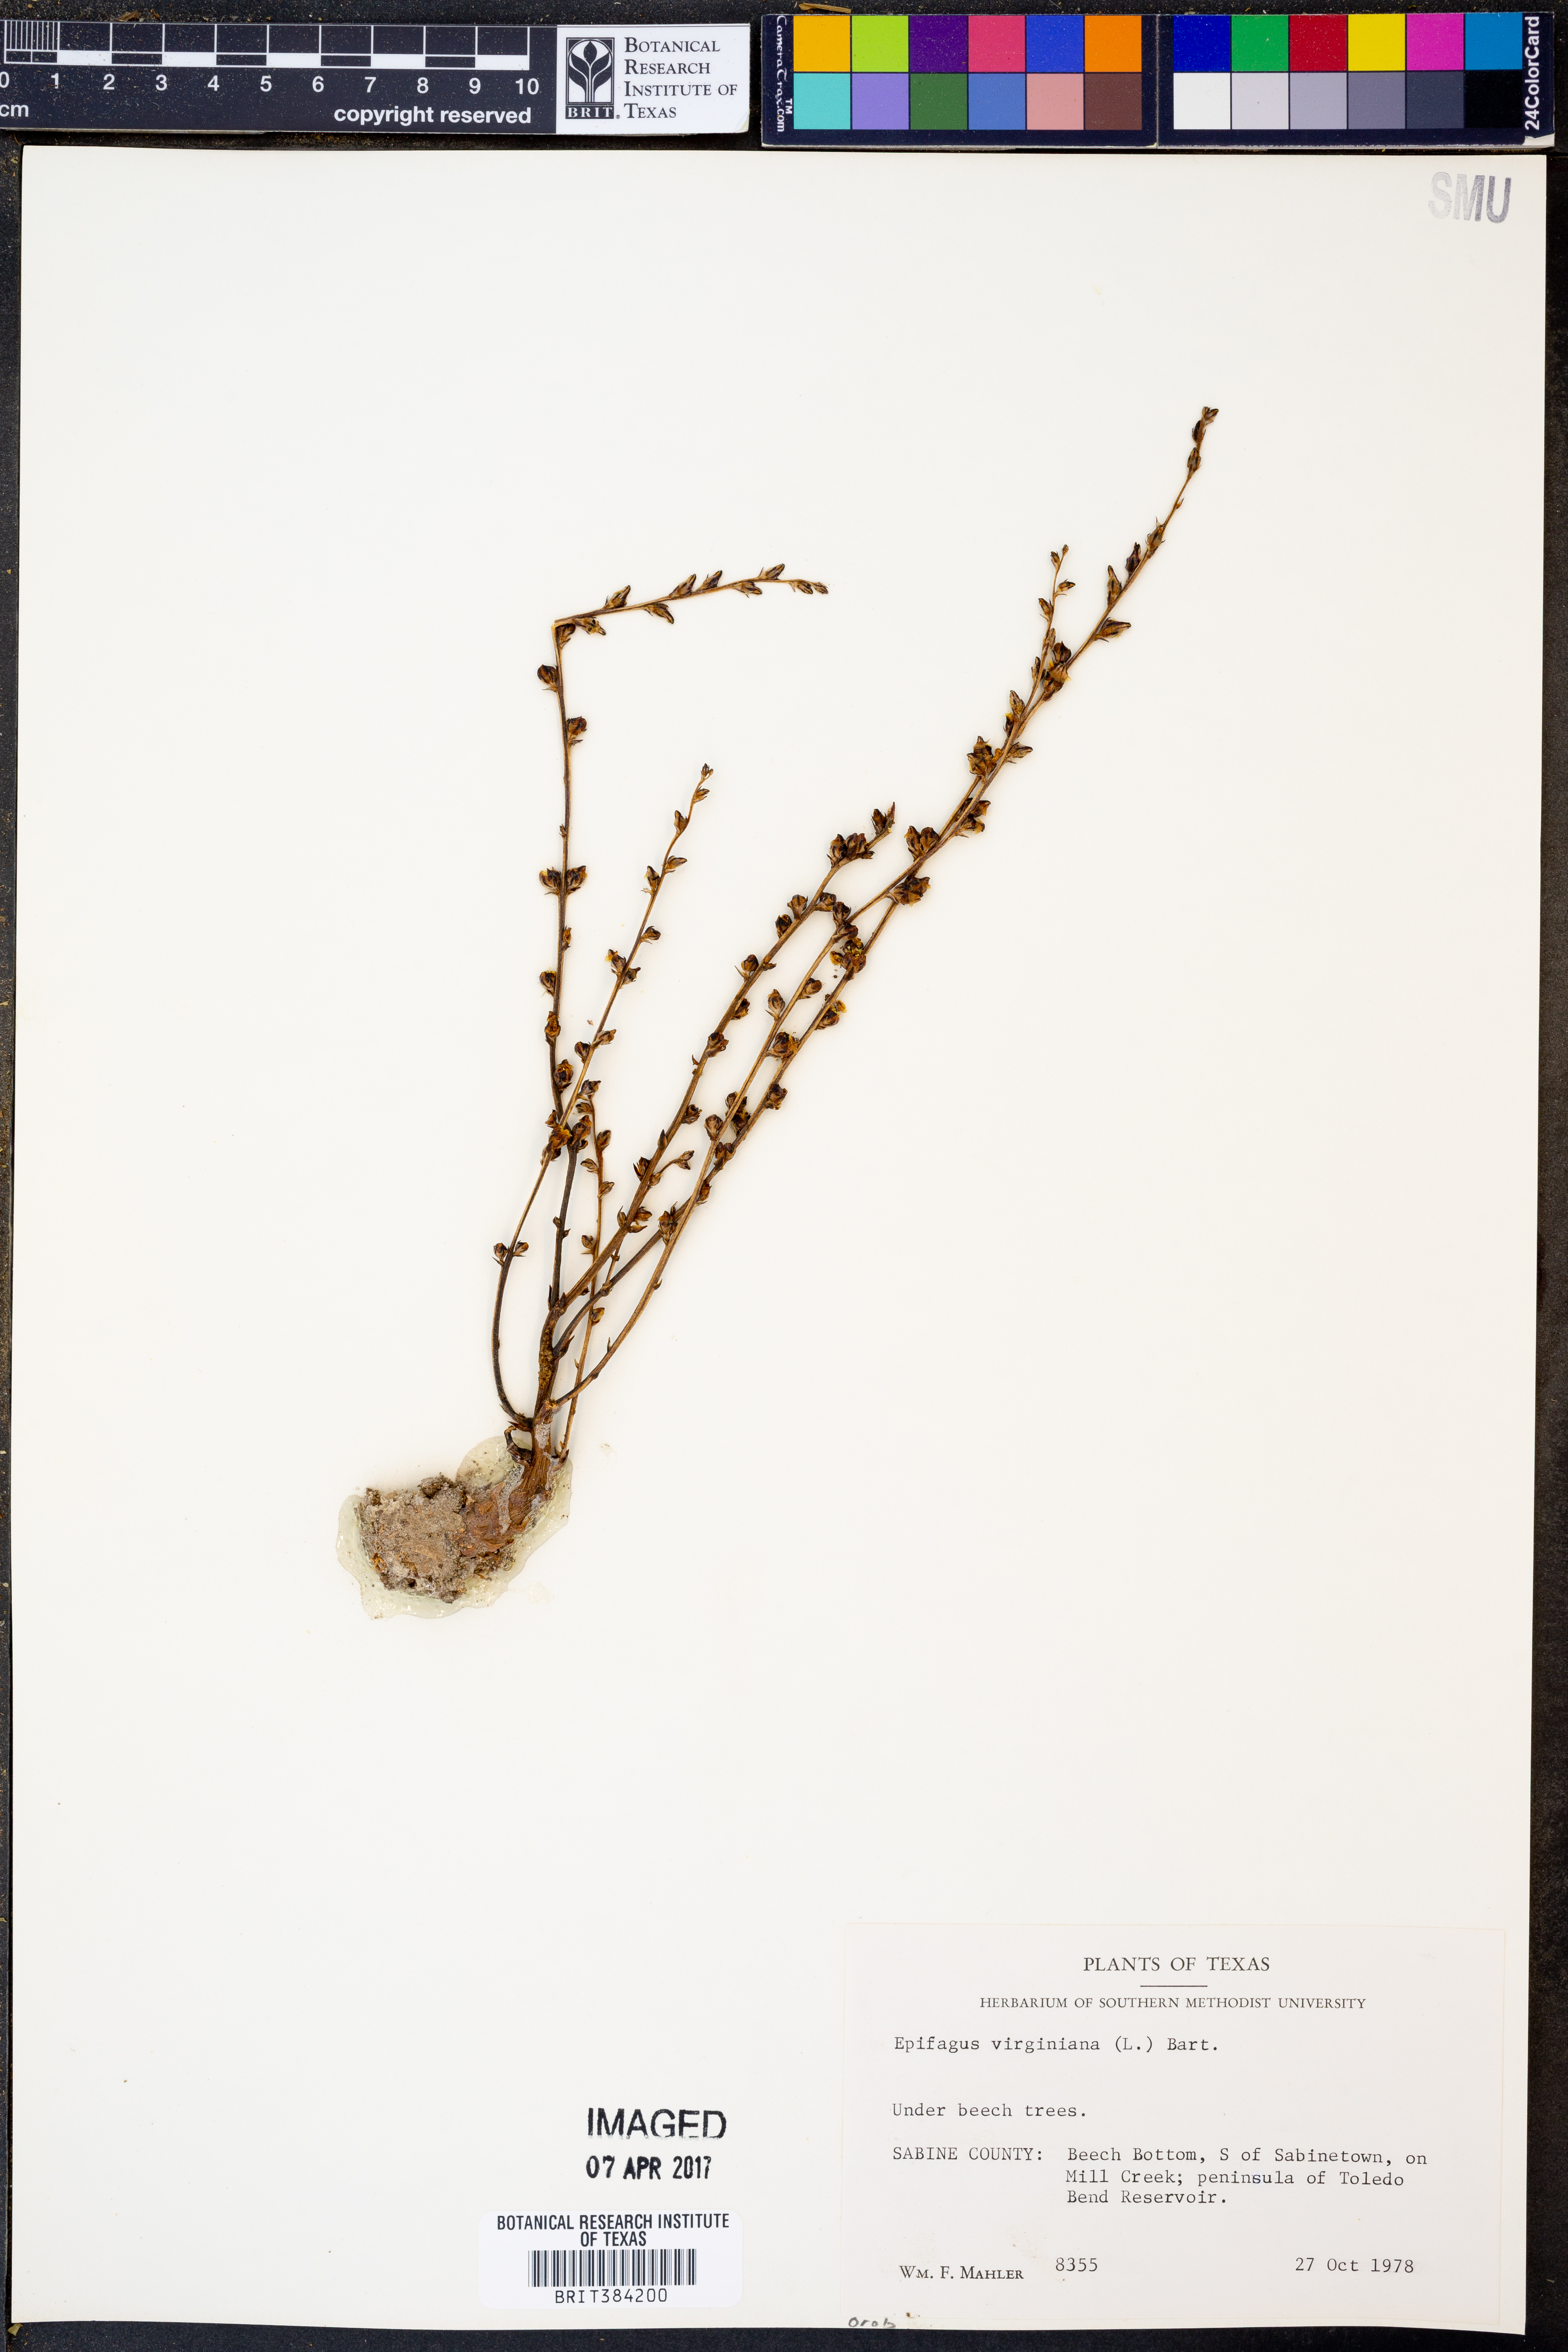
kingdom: Plantae
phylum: Tracheophyta
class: Magnoliopsida
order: Lamiales
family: Orobanchaceae
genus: Epifagus
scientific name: Epifagus virginiana
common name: Beechdrops
